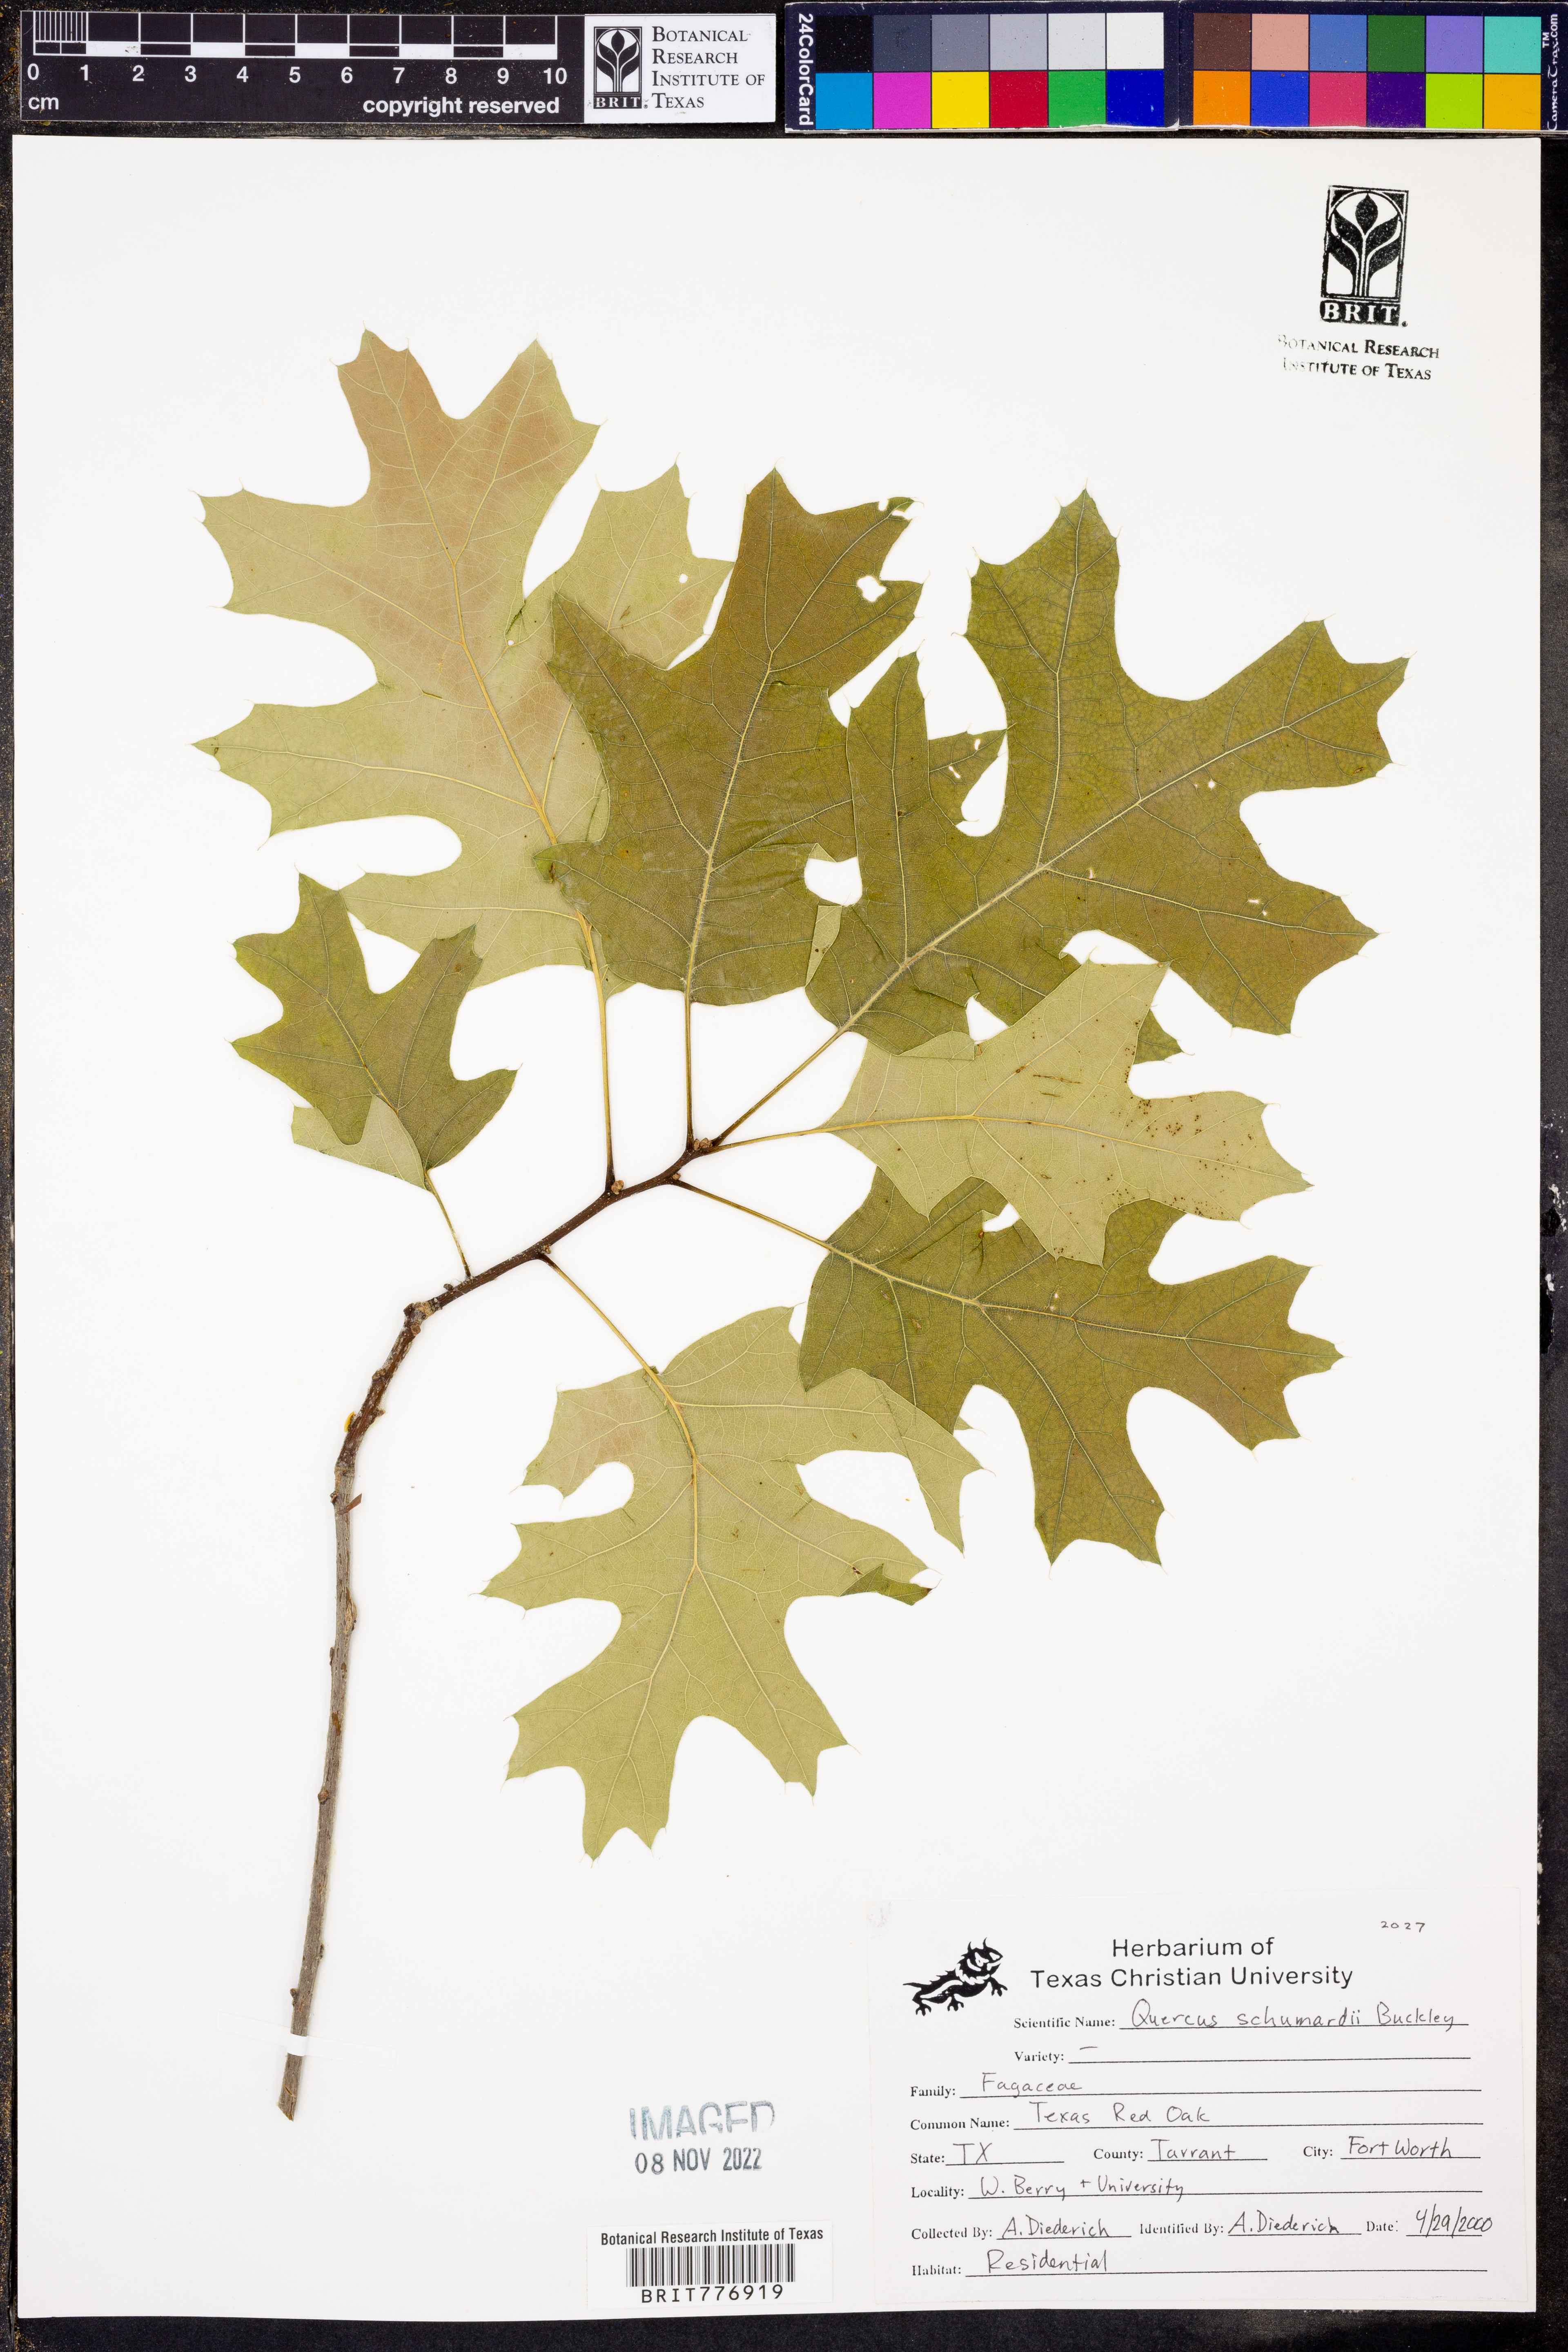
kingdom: Plantae
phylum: Tracheophyta
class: Magnoliopsida
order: Fagales
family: Fagaceae
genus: Quercus
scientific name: Quercus shumardii
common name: Shumard oak
